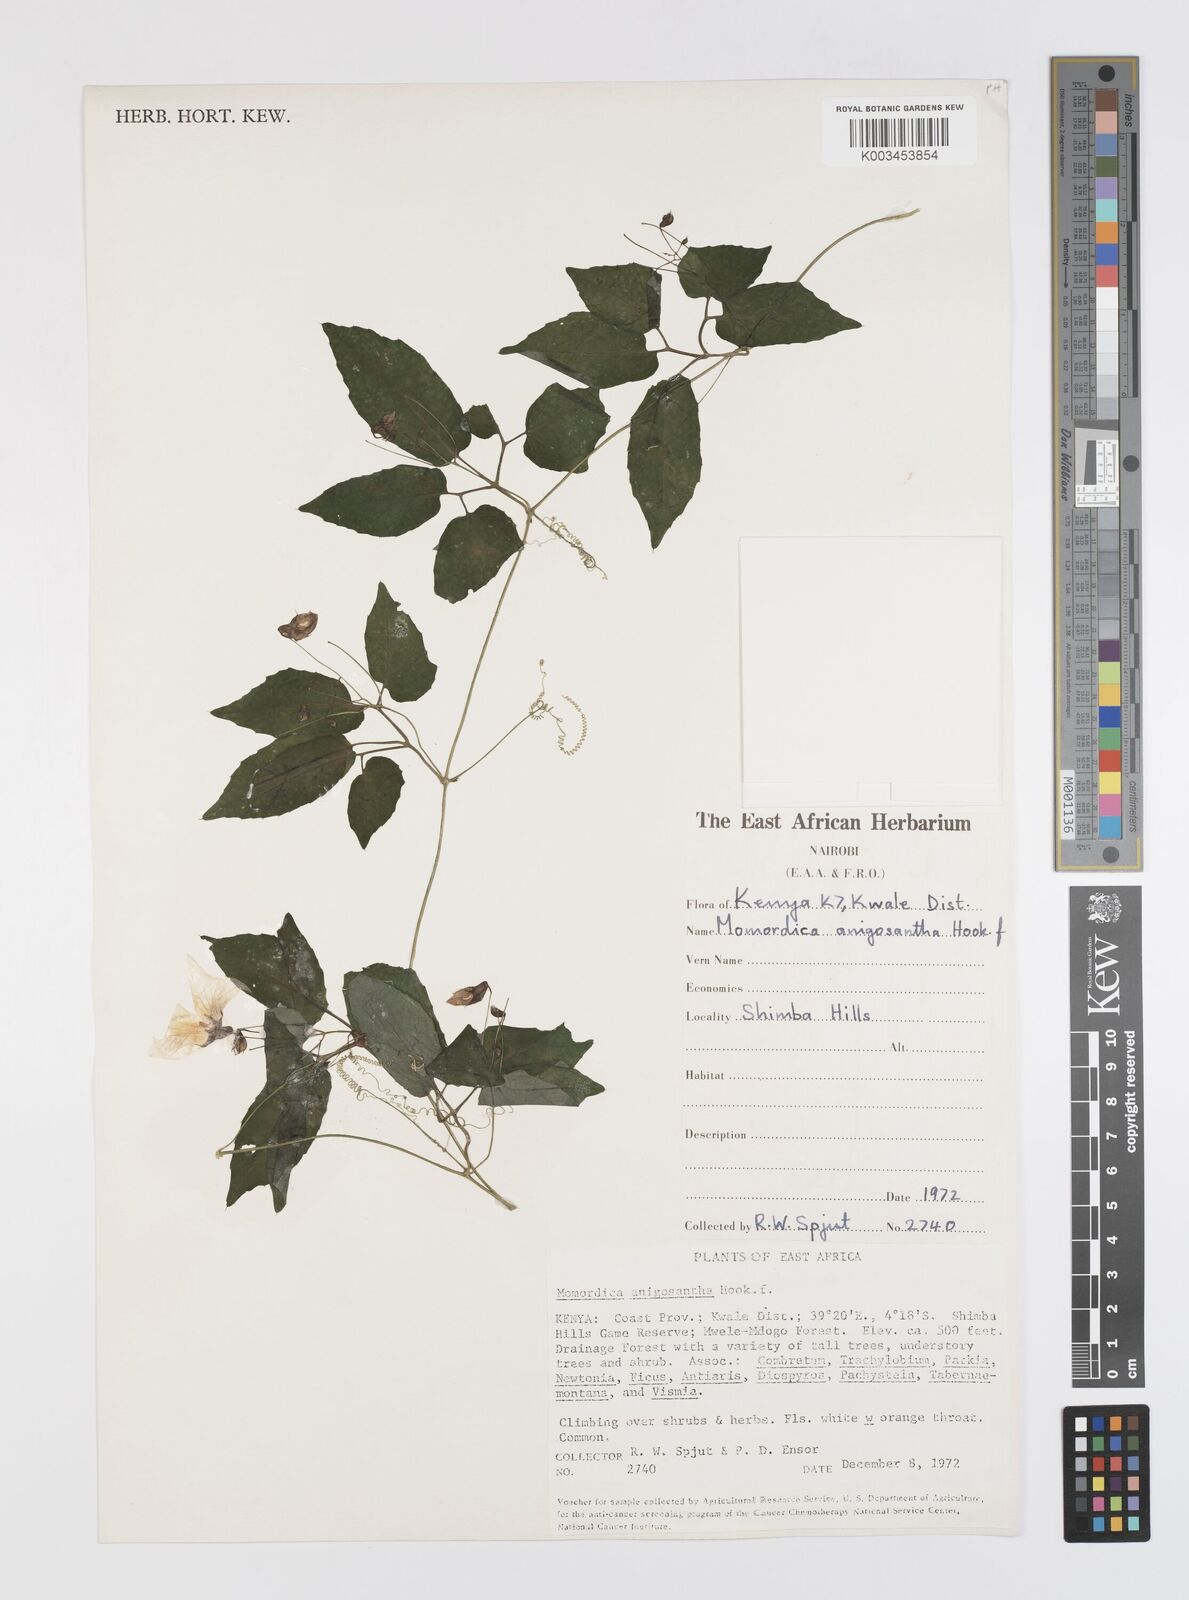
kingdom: Plantae
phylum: Tracheophyta
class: Magnoliopsida
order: Cucurbitales
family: Cucurbitaceae
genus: Momordica
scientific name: Momordica anigosantha
